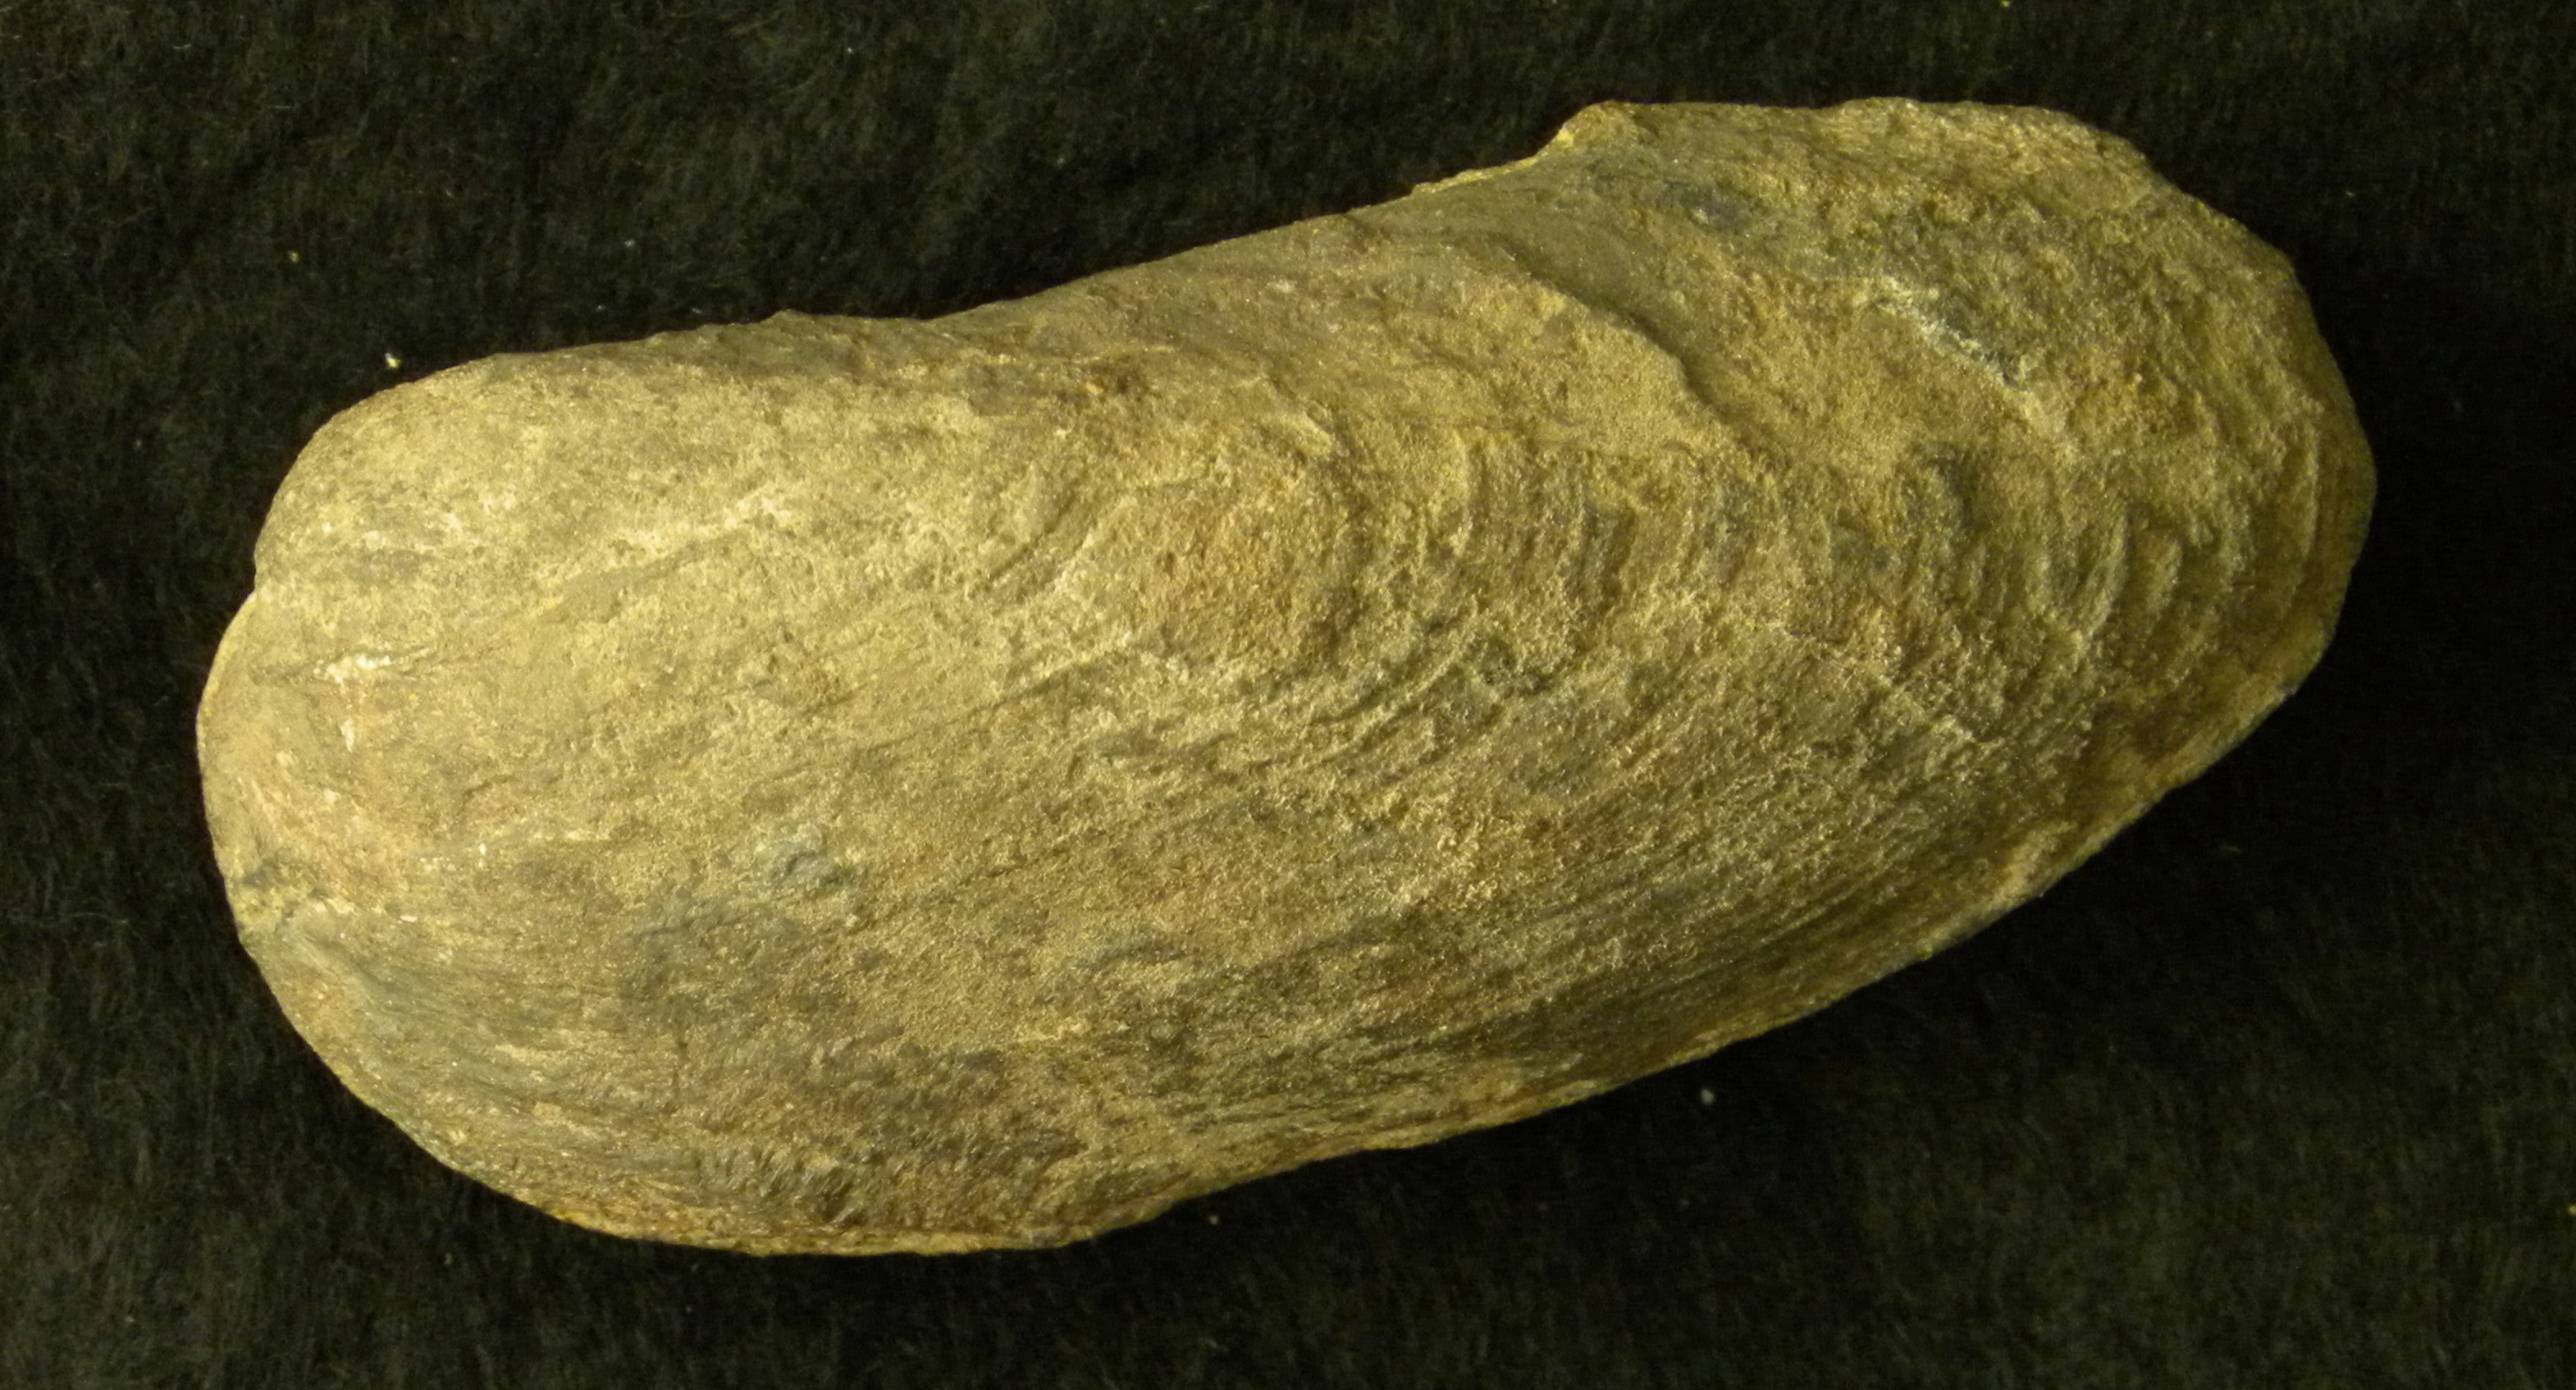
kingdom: Animalia
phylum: Mollusca
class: Bivalvia
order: Myida
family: Pleuromyidae
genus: Pleuromya
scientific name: Pleuromya
